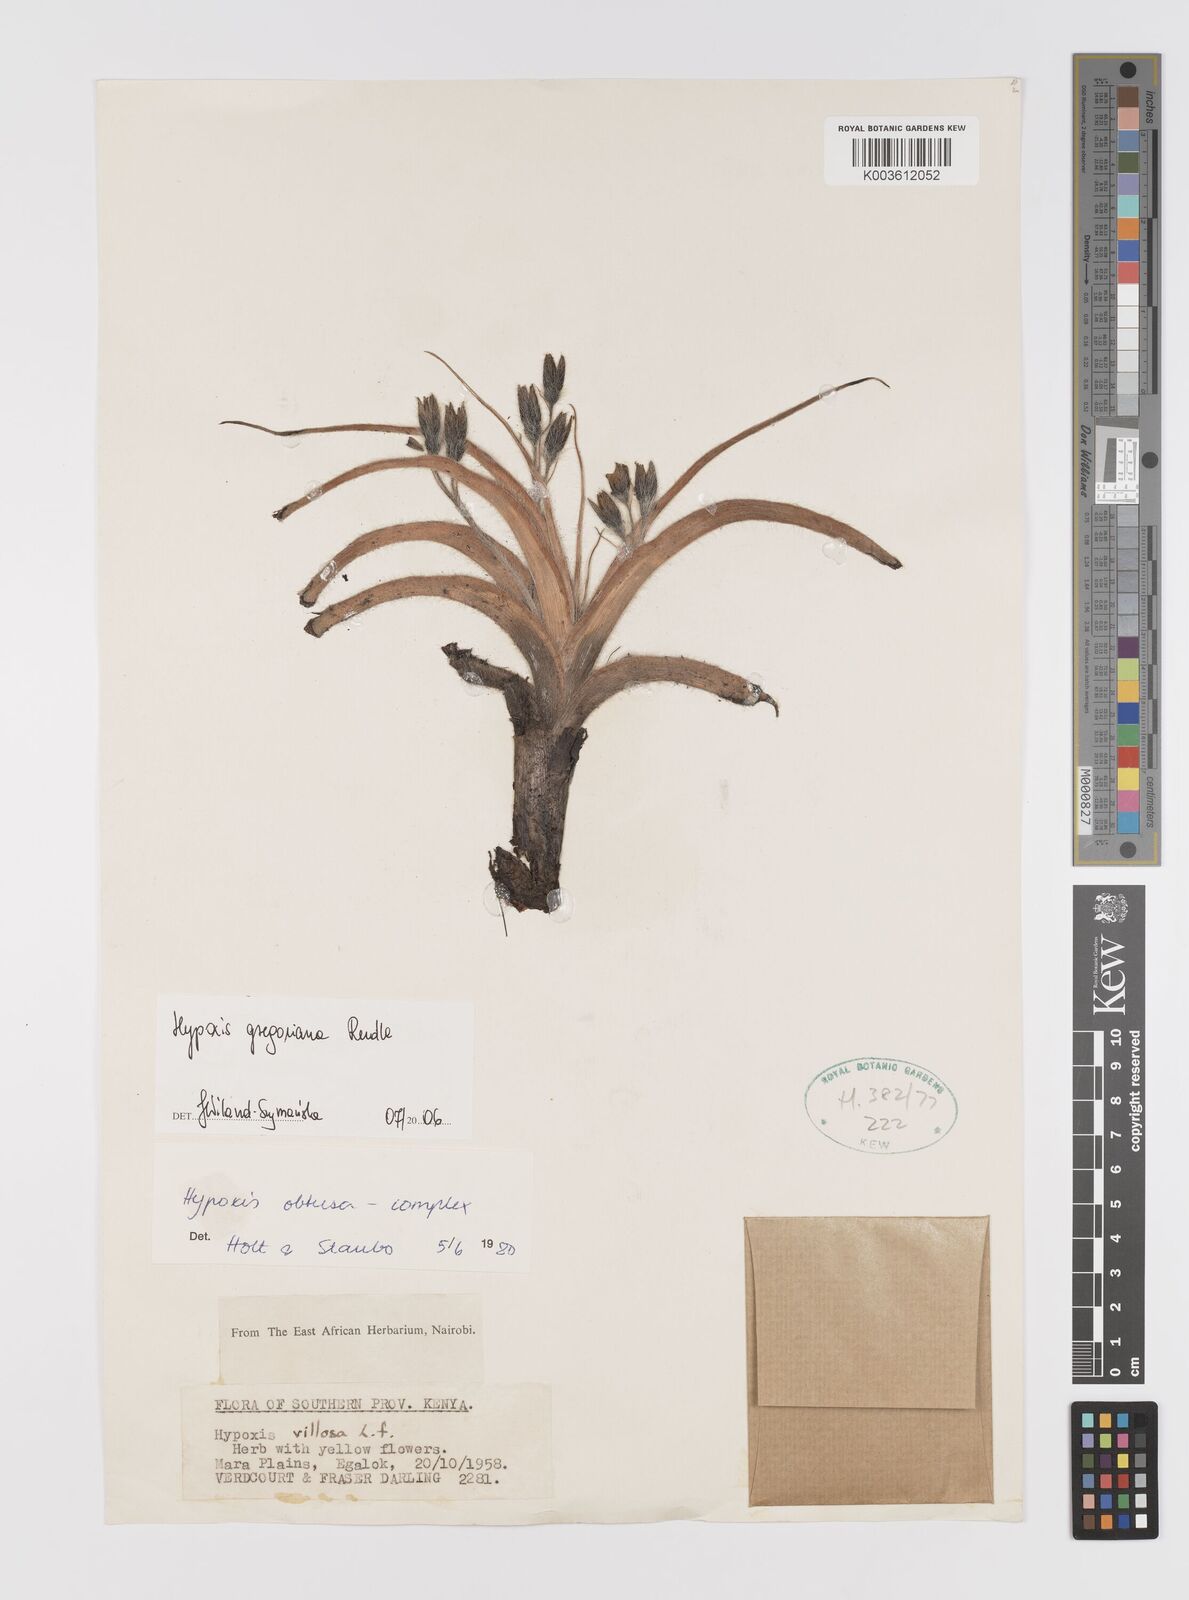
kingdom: Plantae
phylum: Tracheophyta
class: Liliopsida
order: Asparagales
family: Hypoxidaceae
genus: Hypoxis
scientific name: Hypoxis gregoriana
